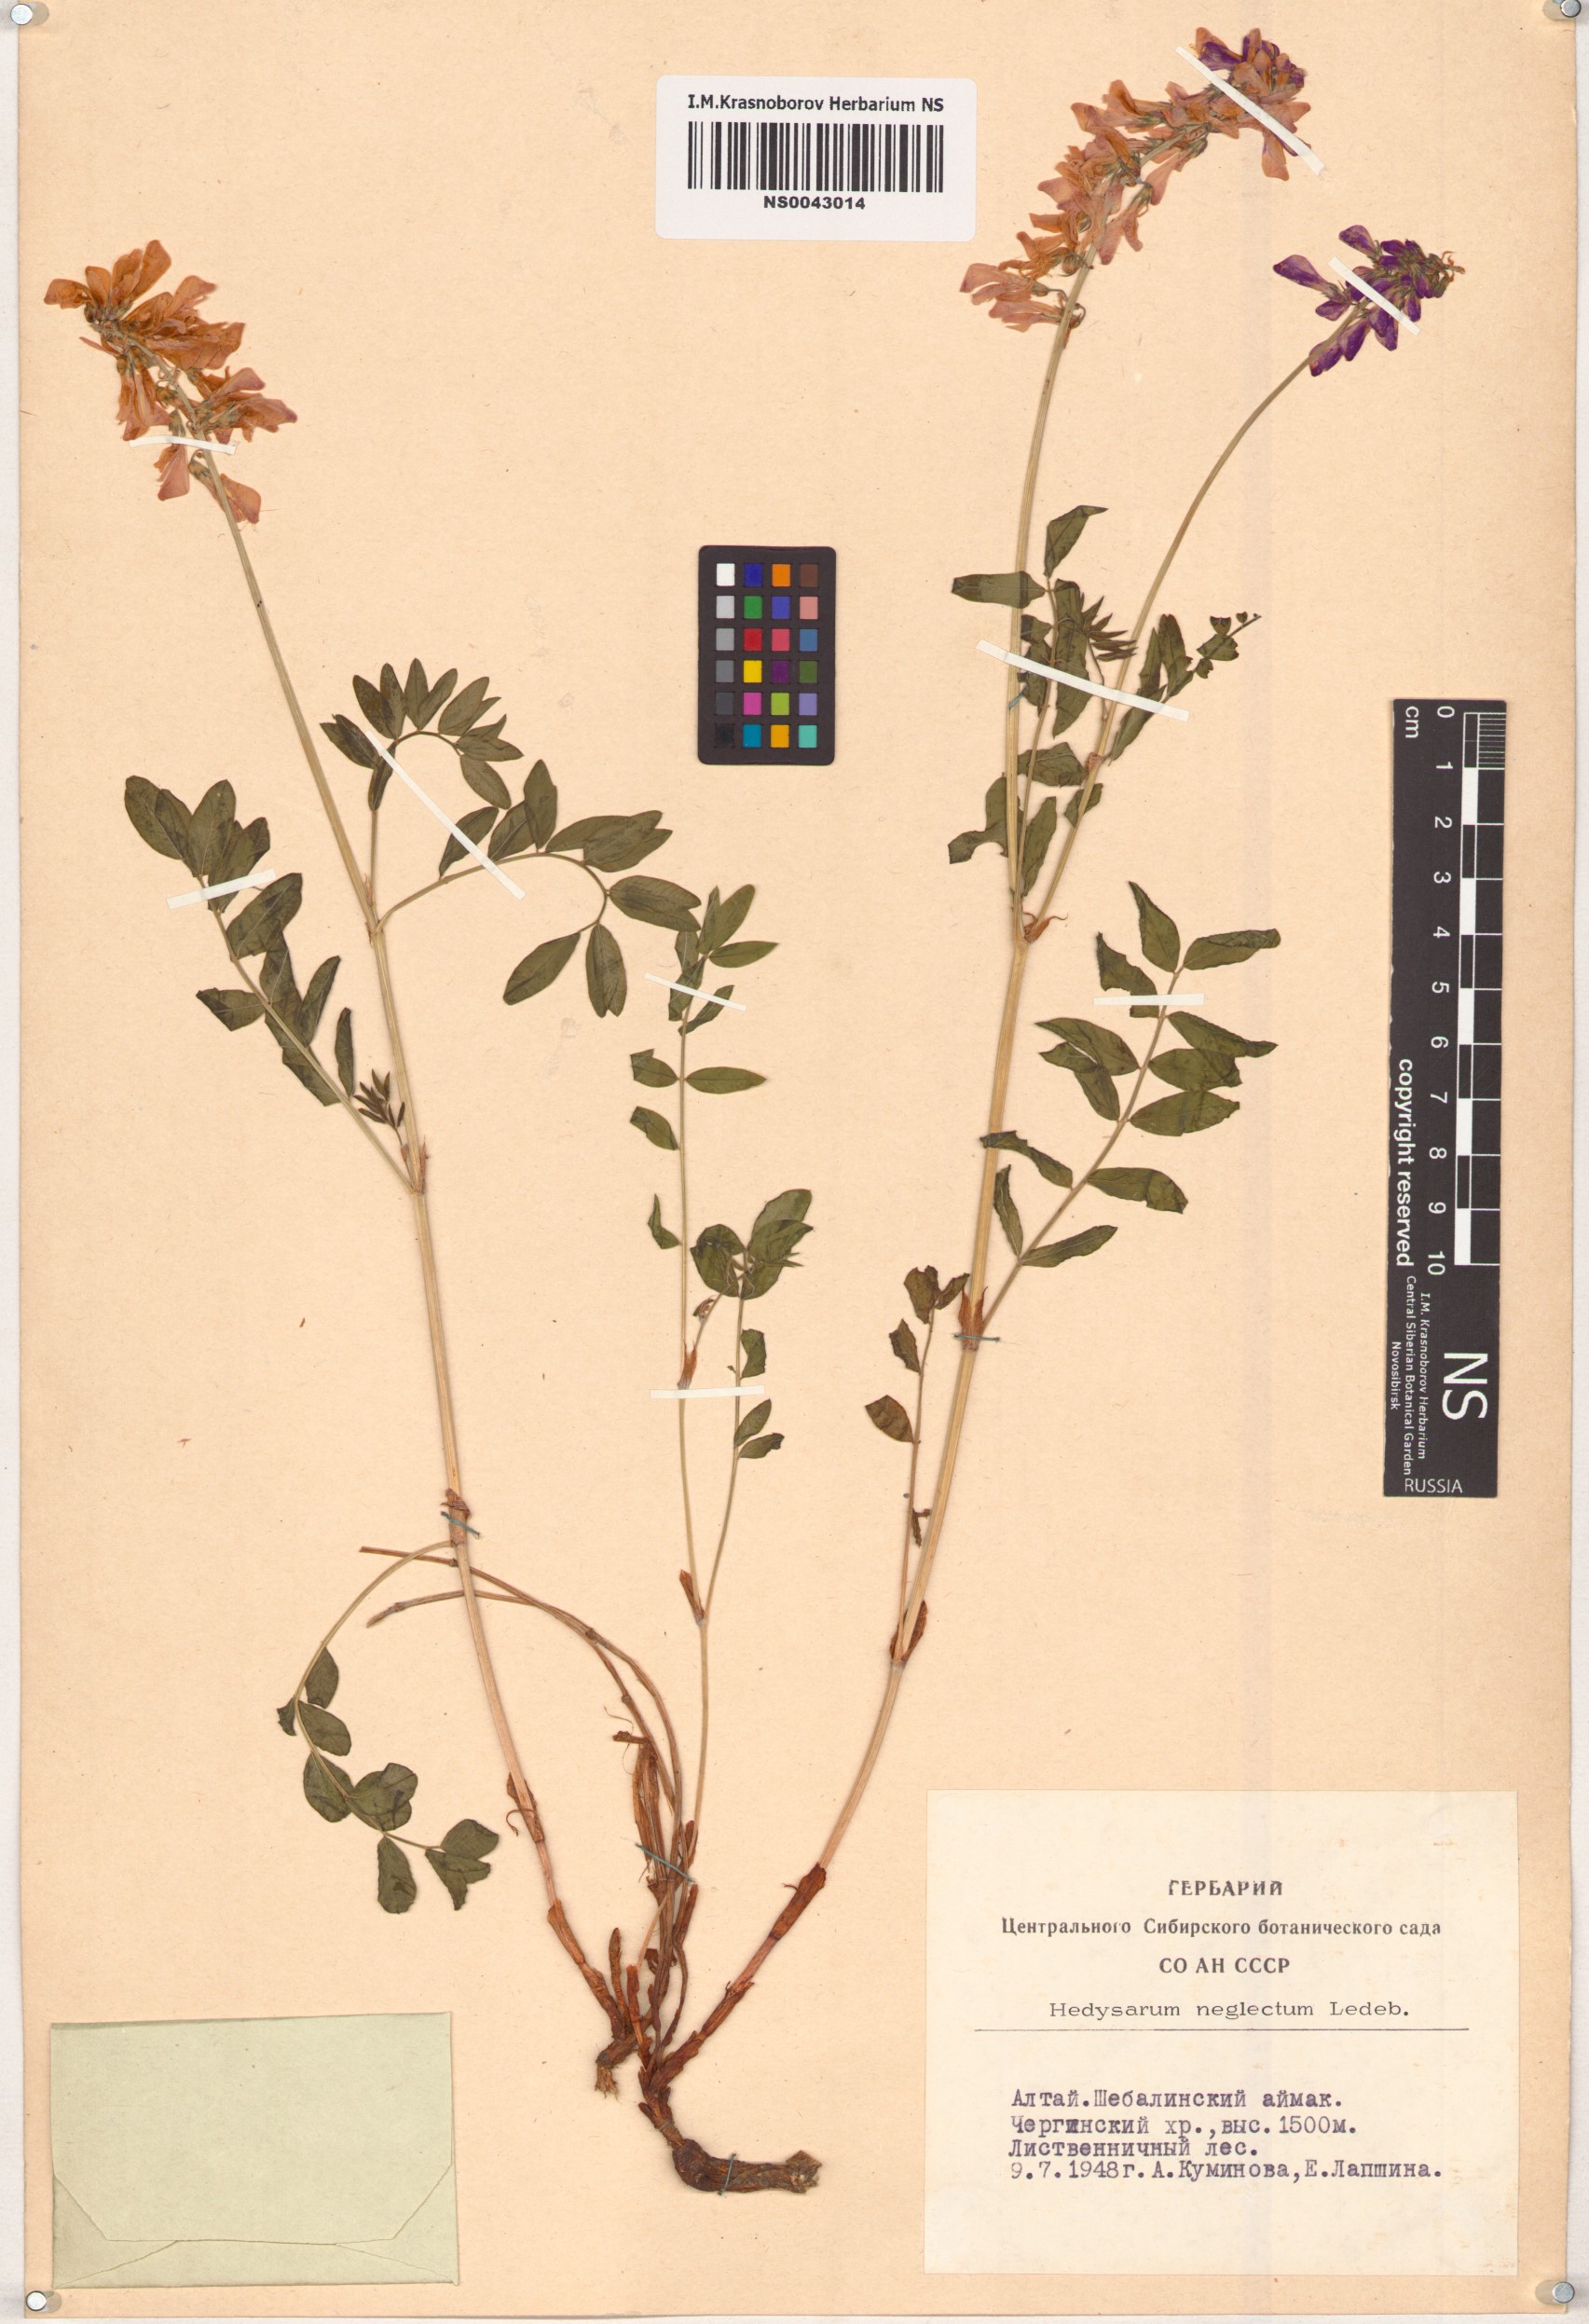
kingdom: Plantae
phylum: Tracheophyta
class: Magnoliopsida
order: Fabales
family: Fabaceae
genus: Hedysarum
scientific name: Hedysarum neglectum
